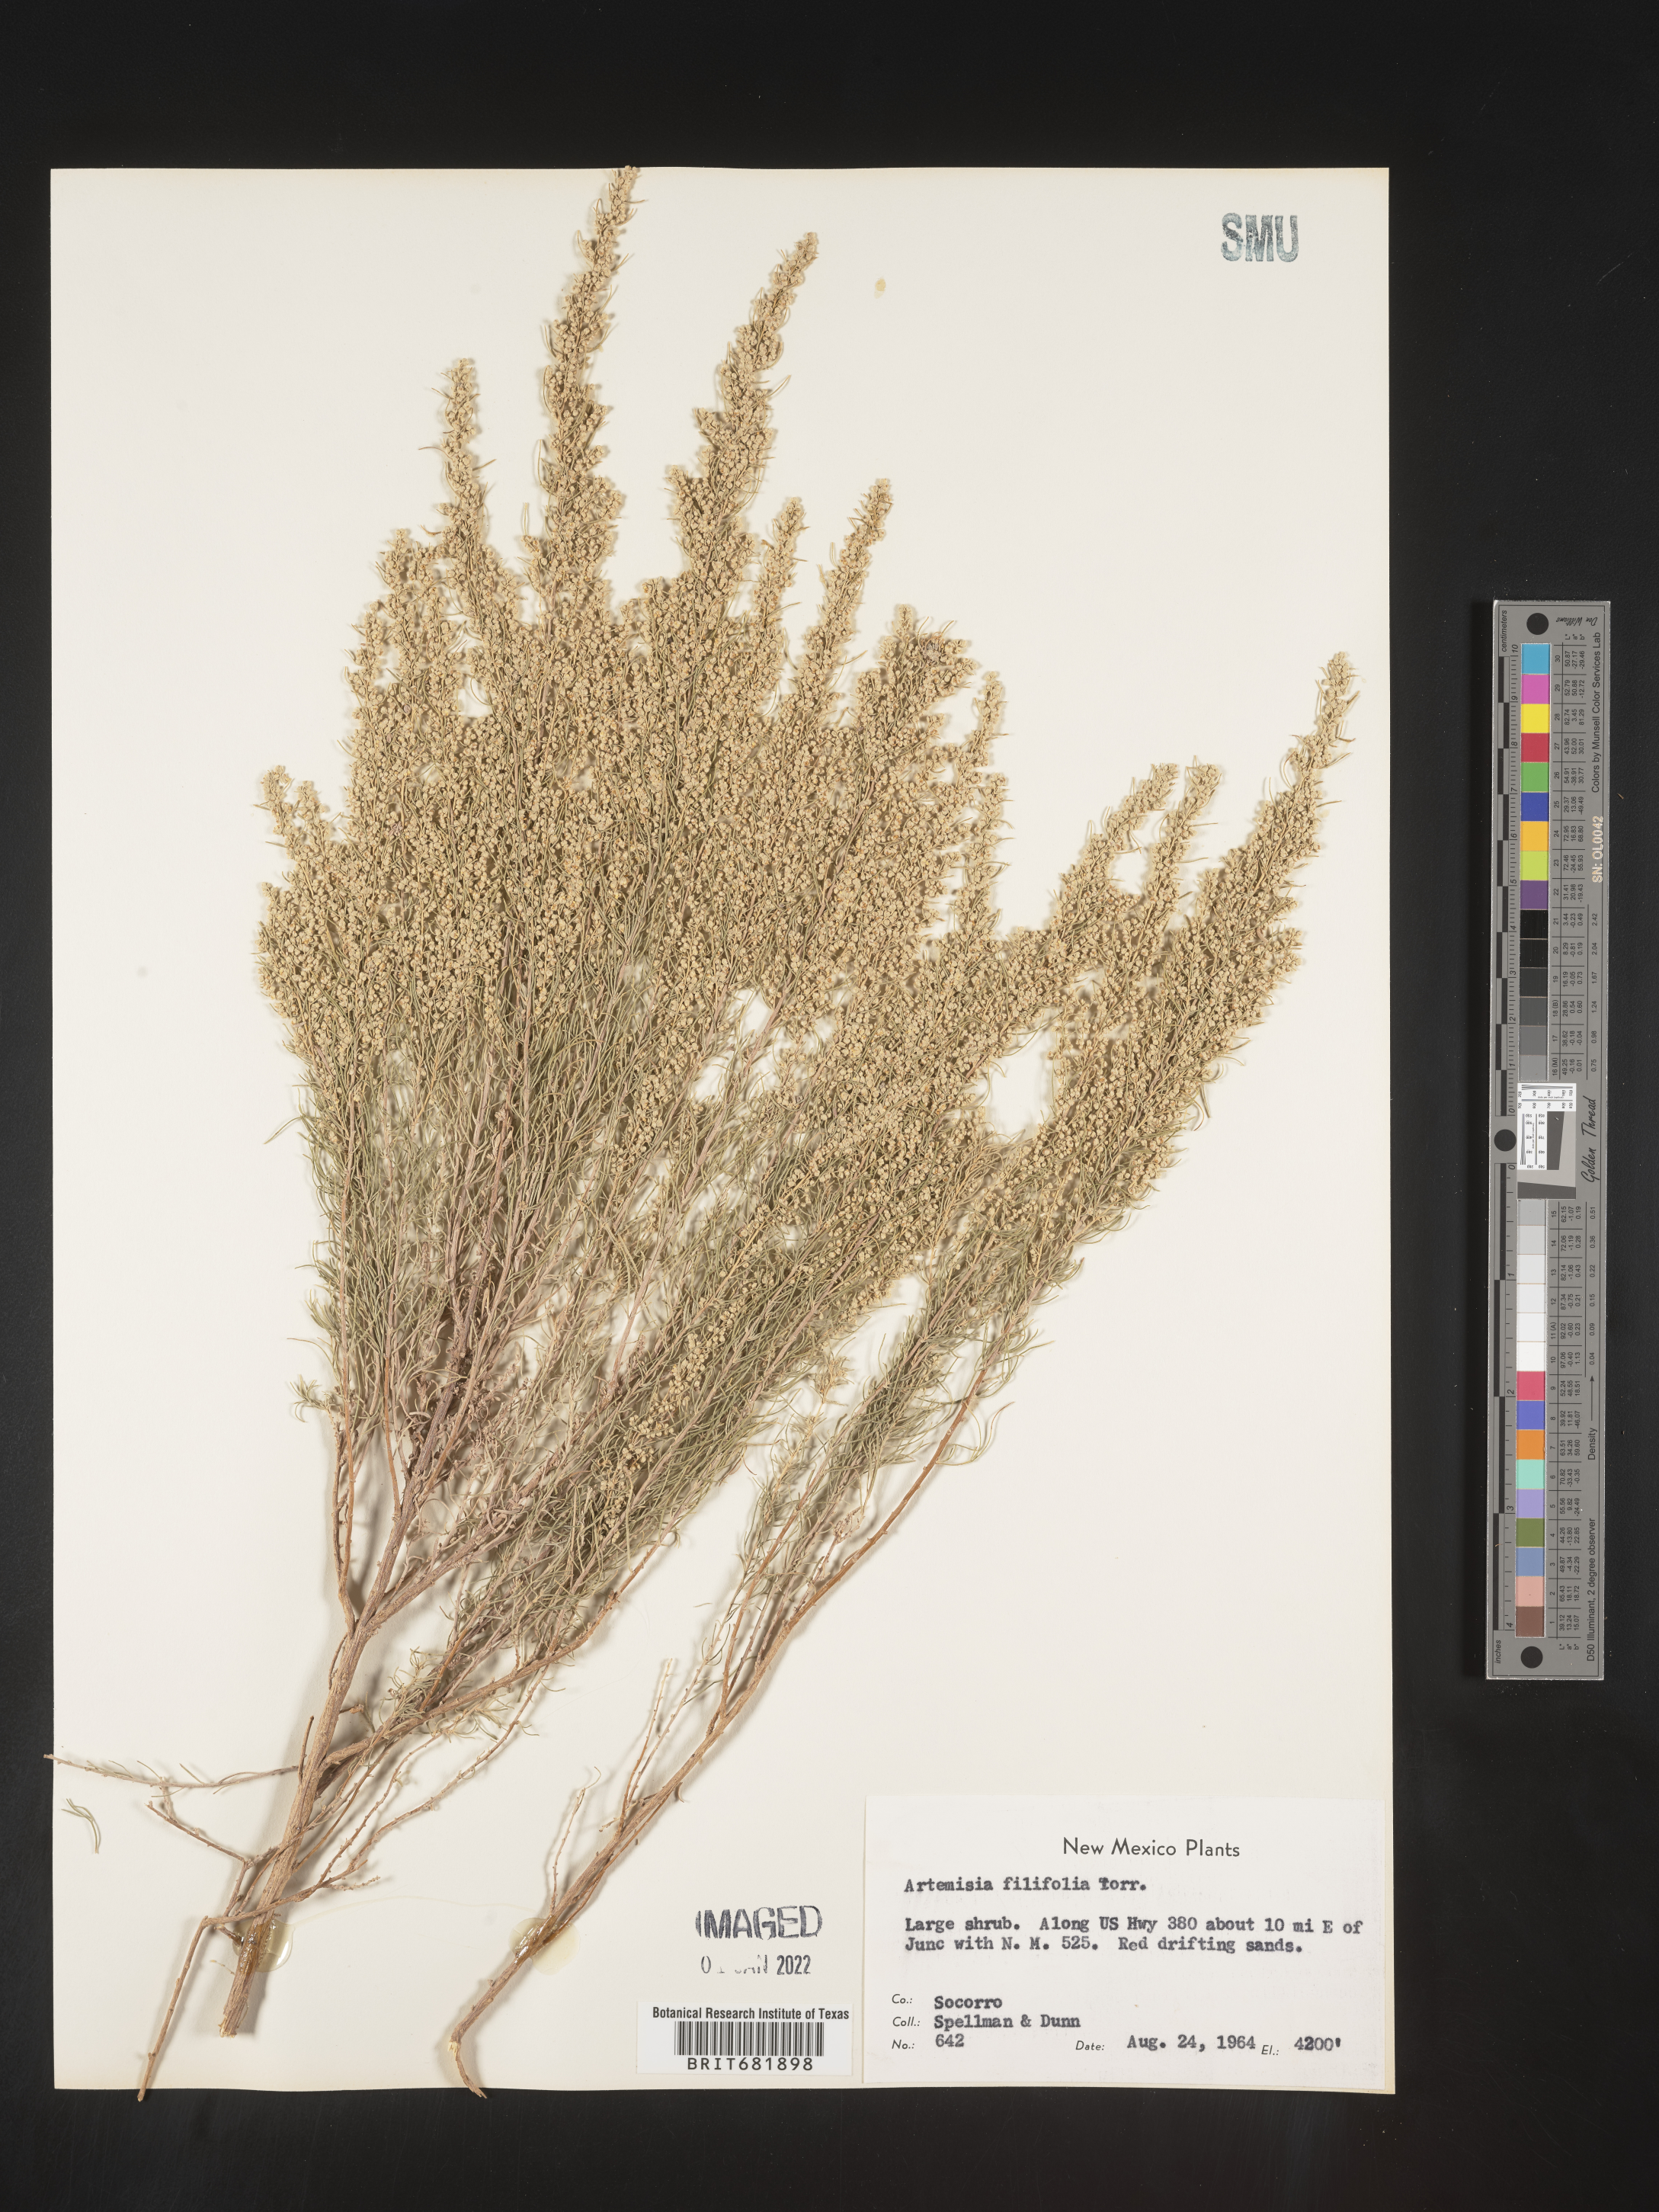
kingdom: Plantae
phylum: Tracheophyta
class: Magnoliopsida
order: Asterales
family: Asteraceae
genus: Artemisia
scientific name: Artemisia filifolia
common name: Sand-sage
